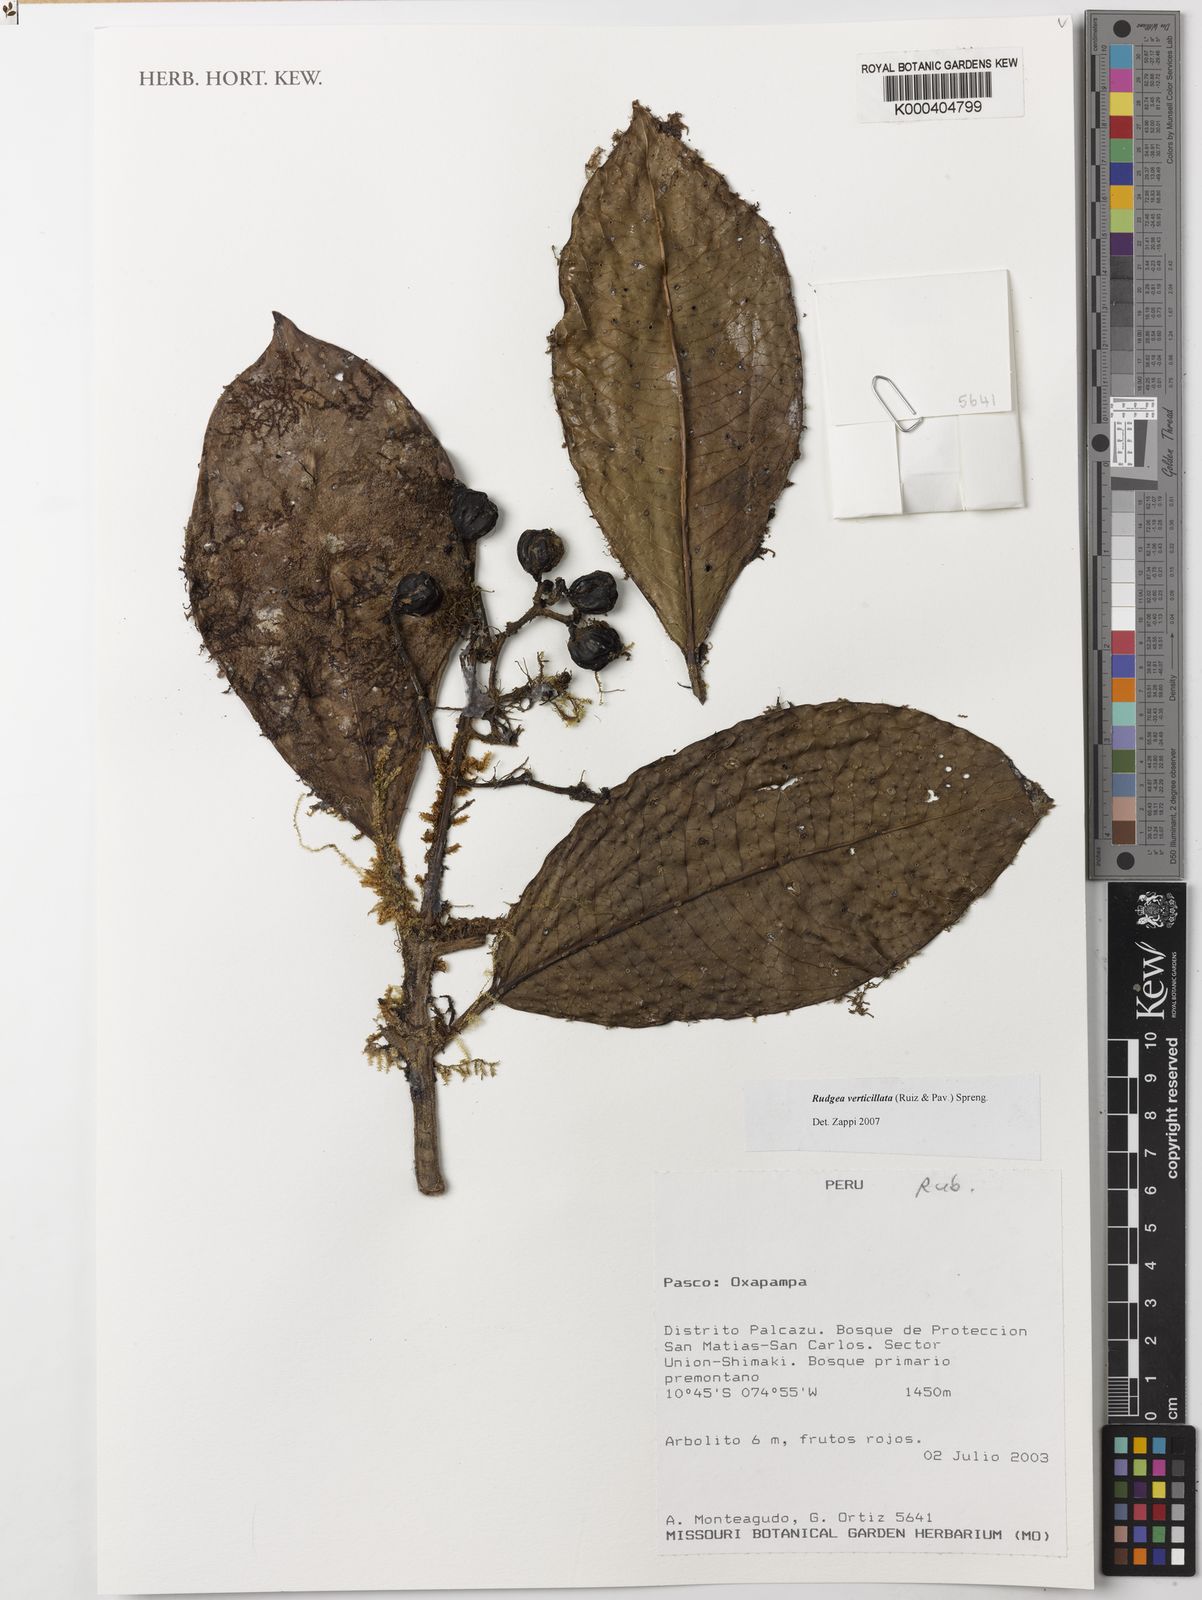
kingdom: Plantae
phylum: Tracheophyta
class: Magnoliopsida
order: Gentianales
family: Rubiaceae
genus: Rudgea
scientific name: Rudgea verticillata
